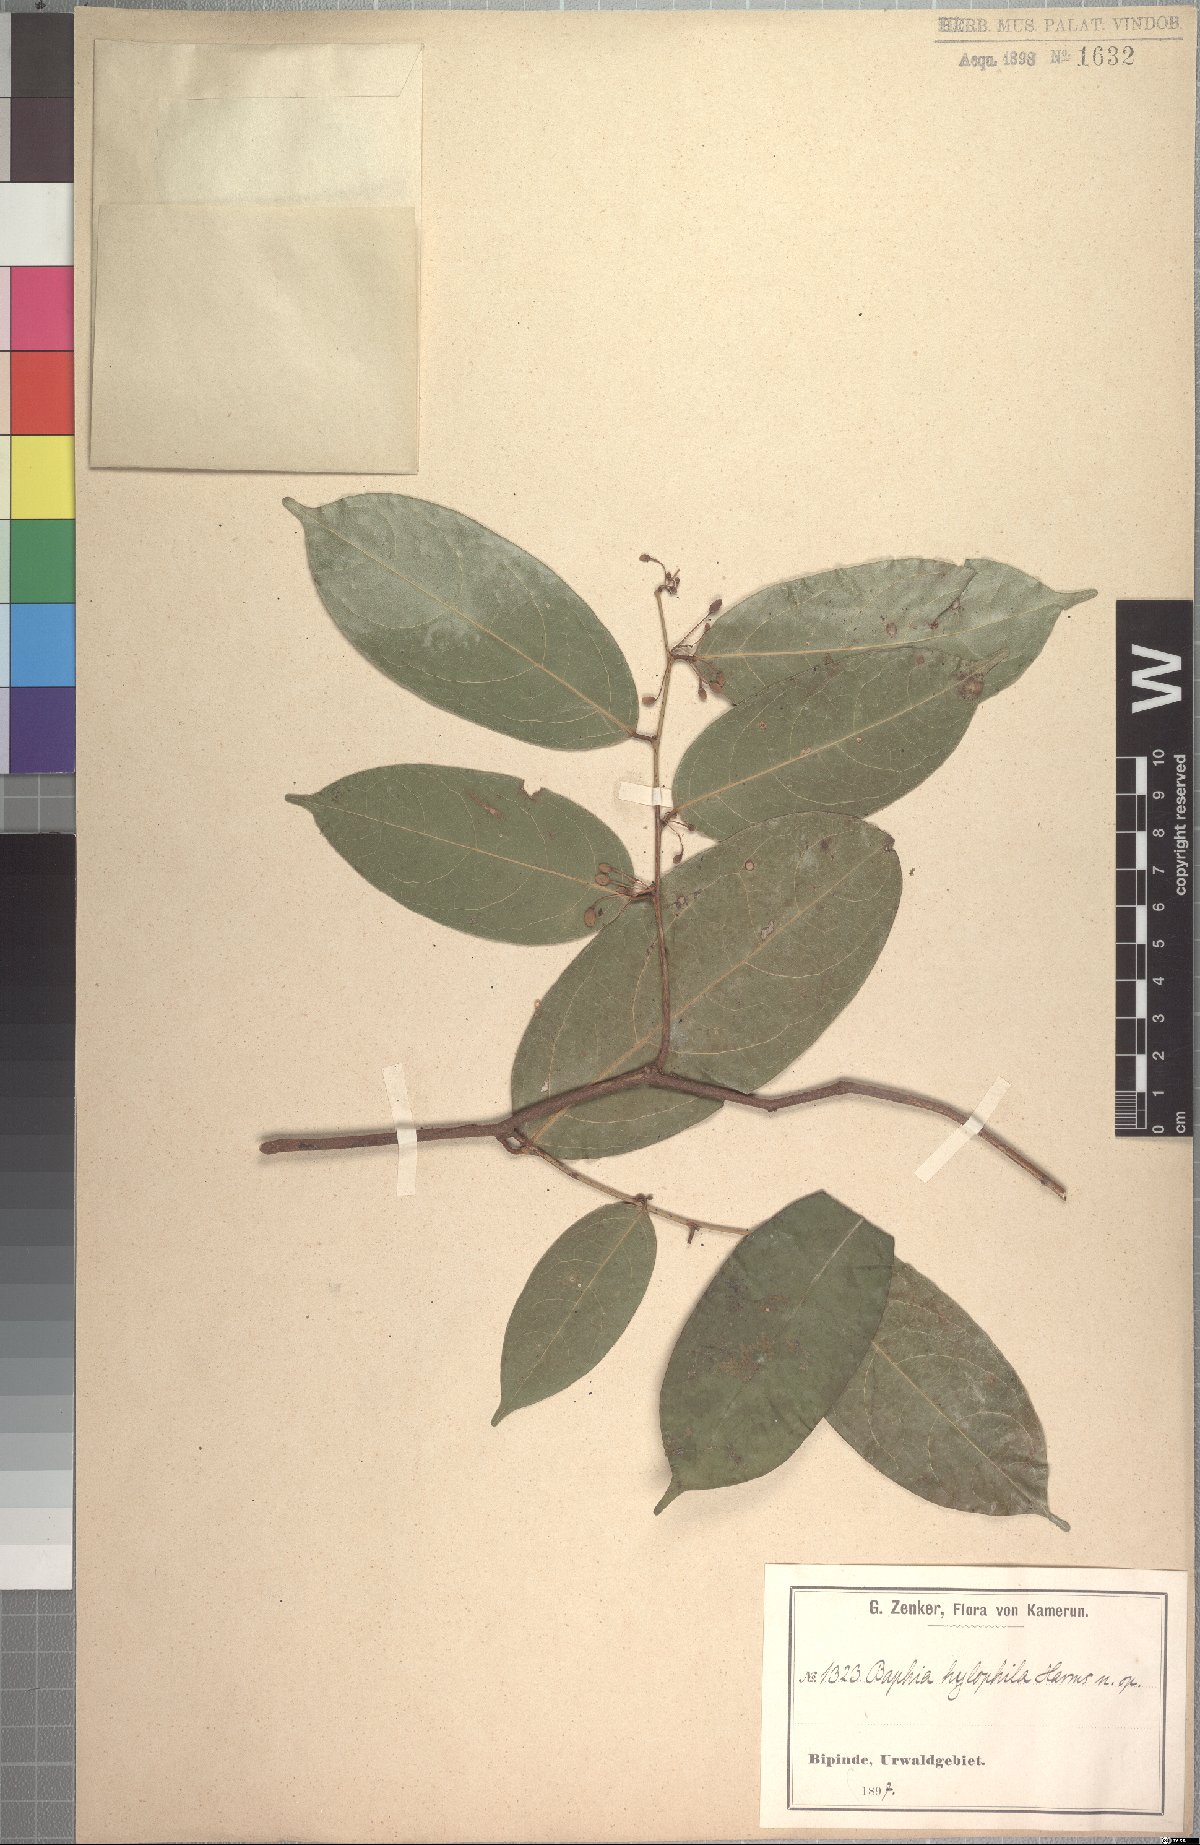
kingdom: Plantae
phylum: Tracheophyta
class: Magnoliopsida
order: Fabales
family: Fabaceae
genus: Baphia
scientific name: Baphia buettneri
